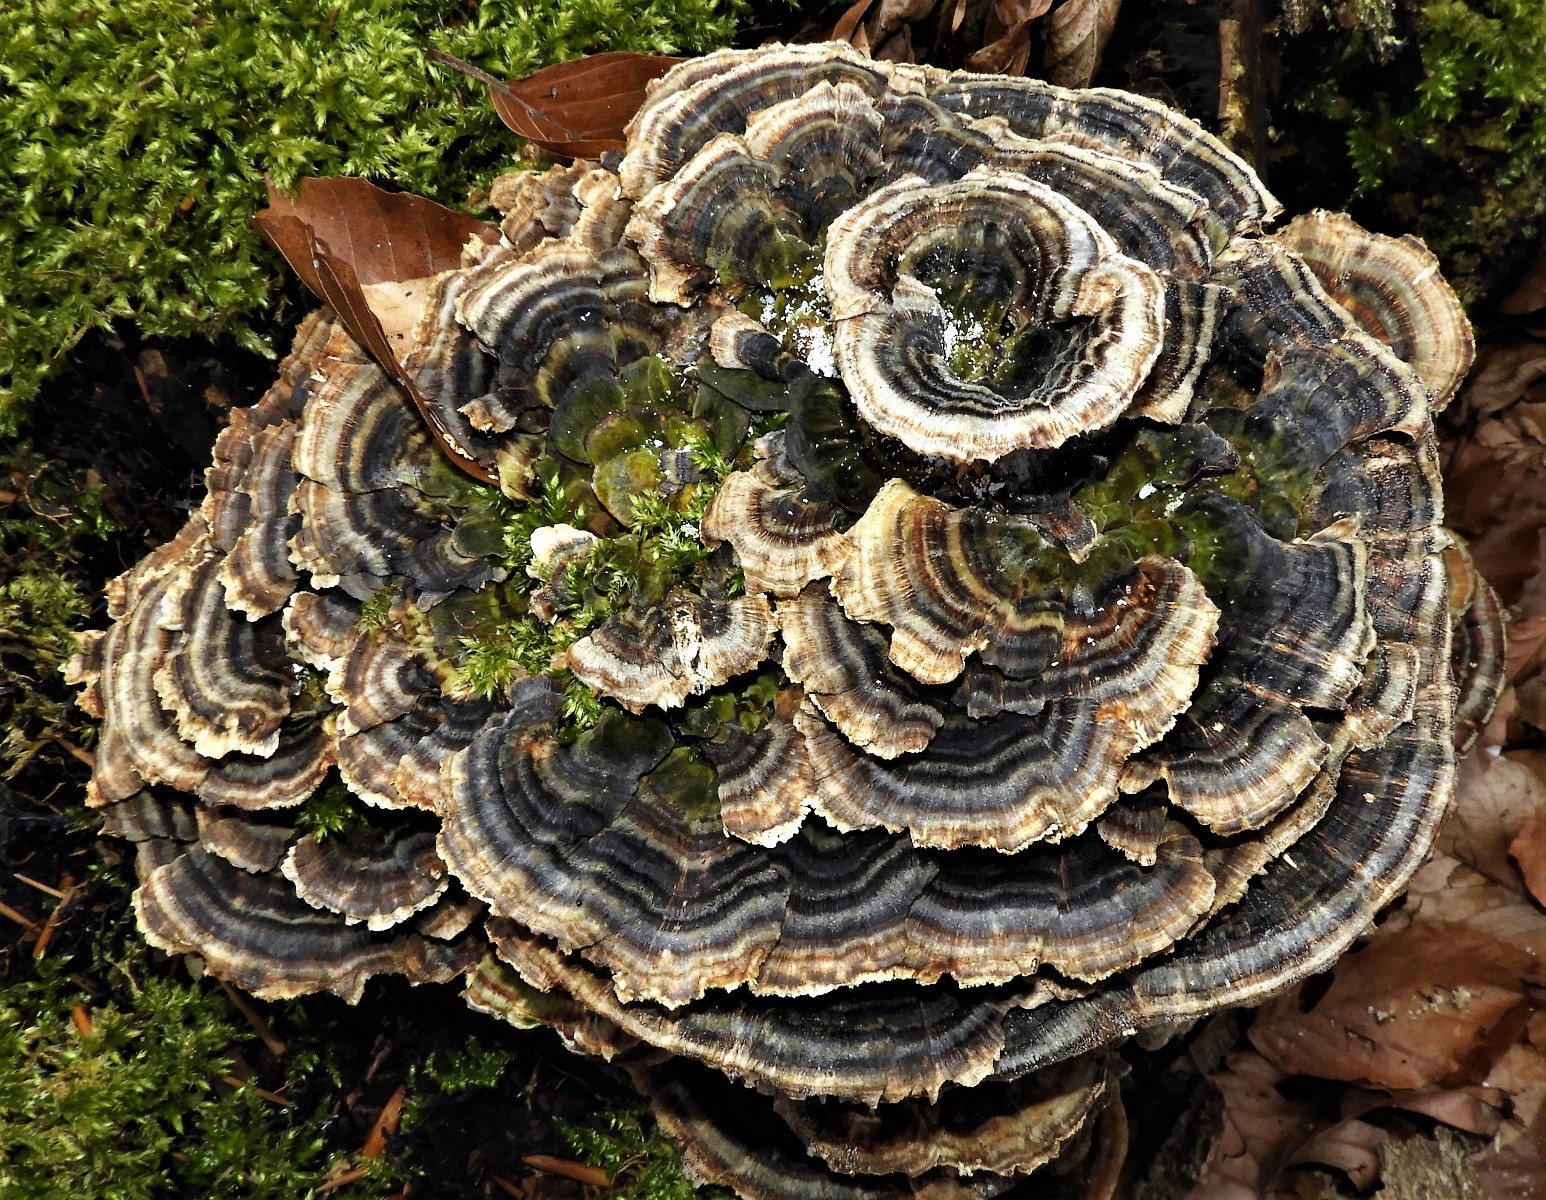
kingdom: Fungi
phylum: Basidiomycota
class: Agaricomycetes
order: Polyporales
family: Polyporaceae
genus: Trametes
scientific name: Trametes versicolor
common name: broget læderporesvamp
